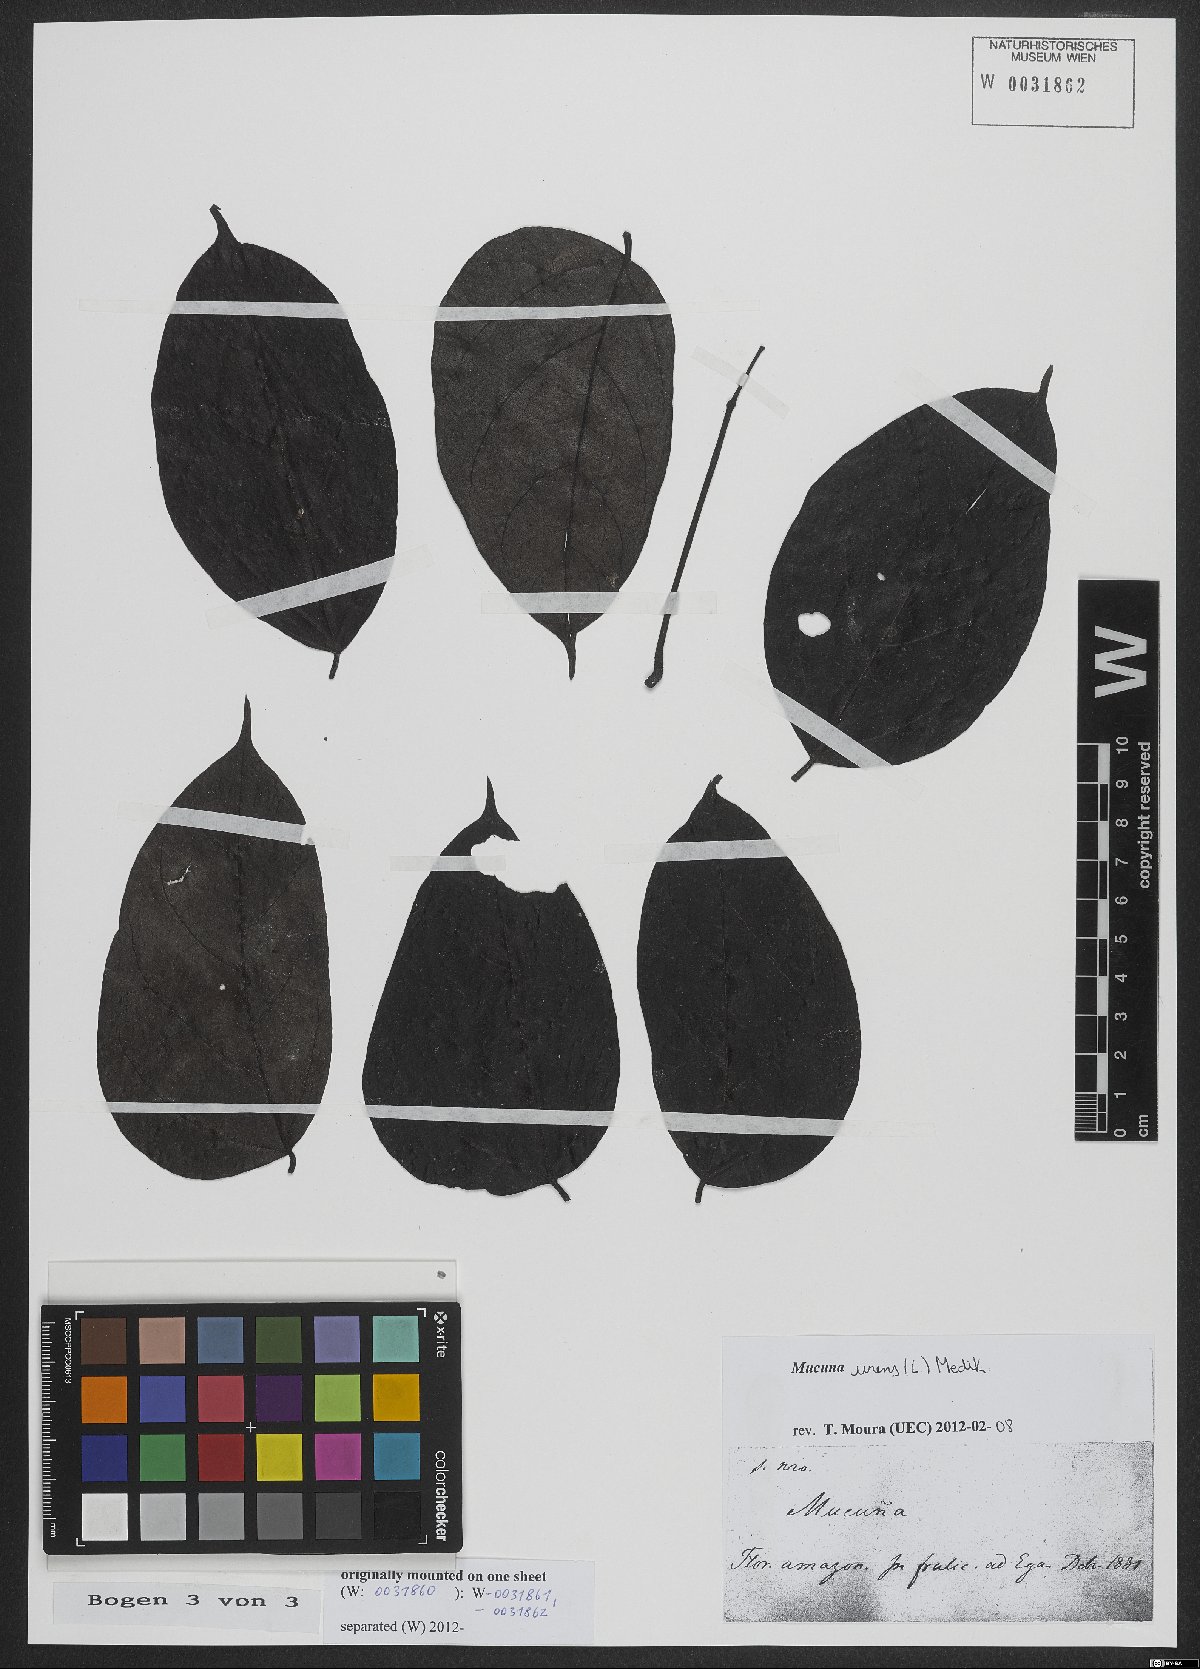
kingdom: Plantae
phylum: Tracheophyta
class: Magnoliopsida
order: Fabales
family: Fabaceae
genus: Mucuna
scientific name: Mucuna urens
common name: Red hamburger bean
